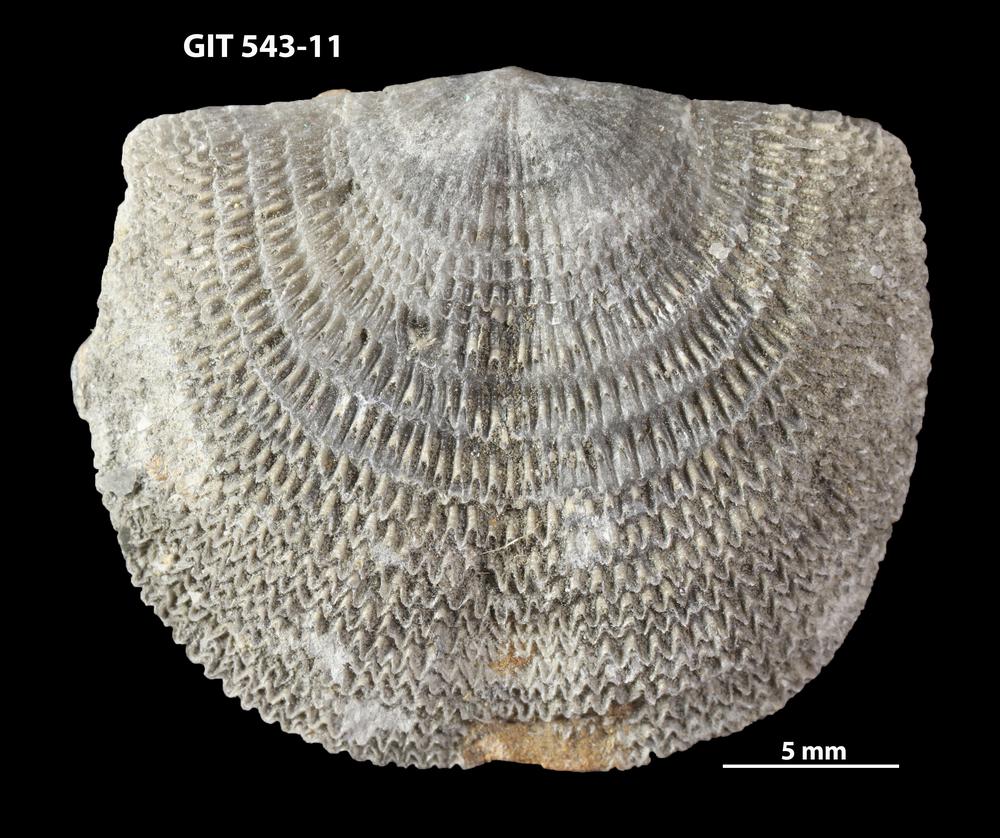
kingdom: Animalia
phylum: Brachiopoda
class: Rhynchonellata
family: Clitambonitidae
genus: Clitambonites
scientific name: Clitambonites
